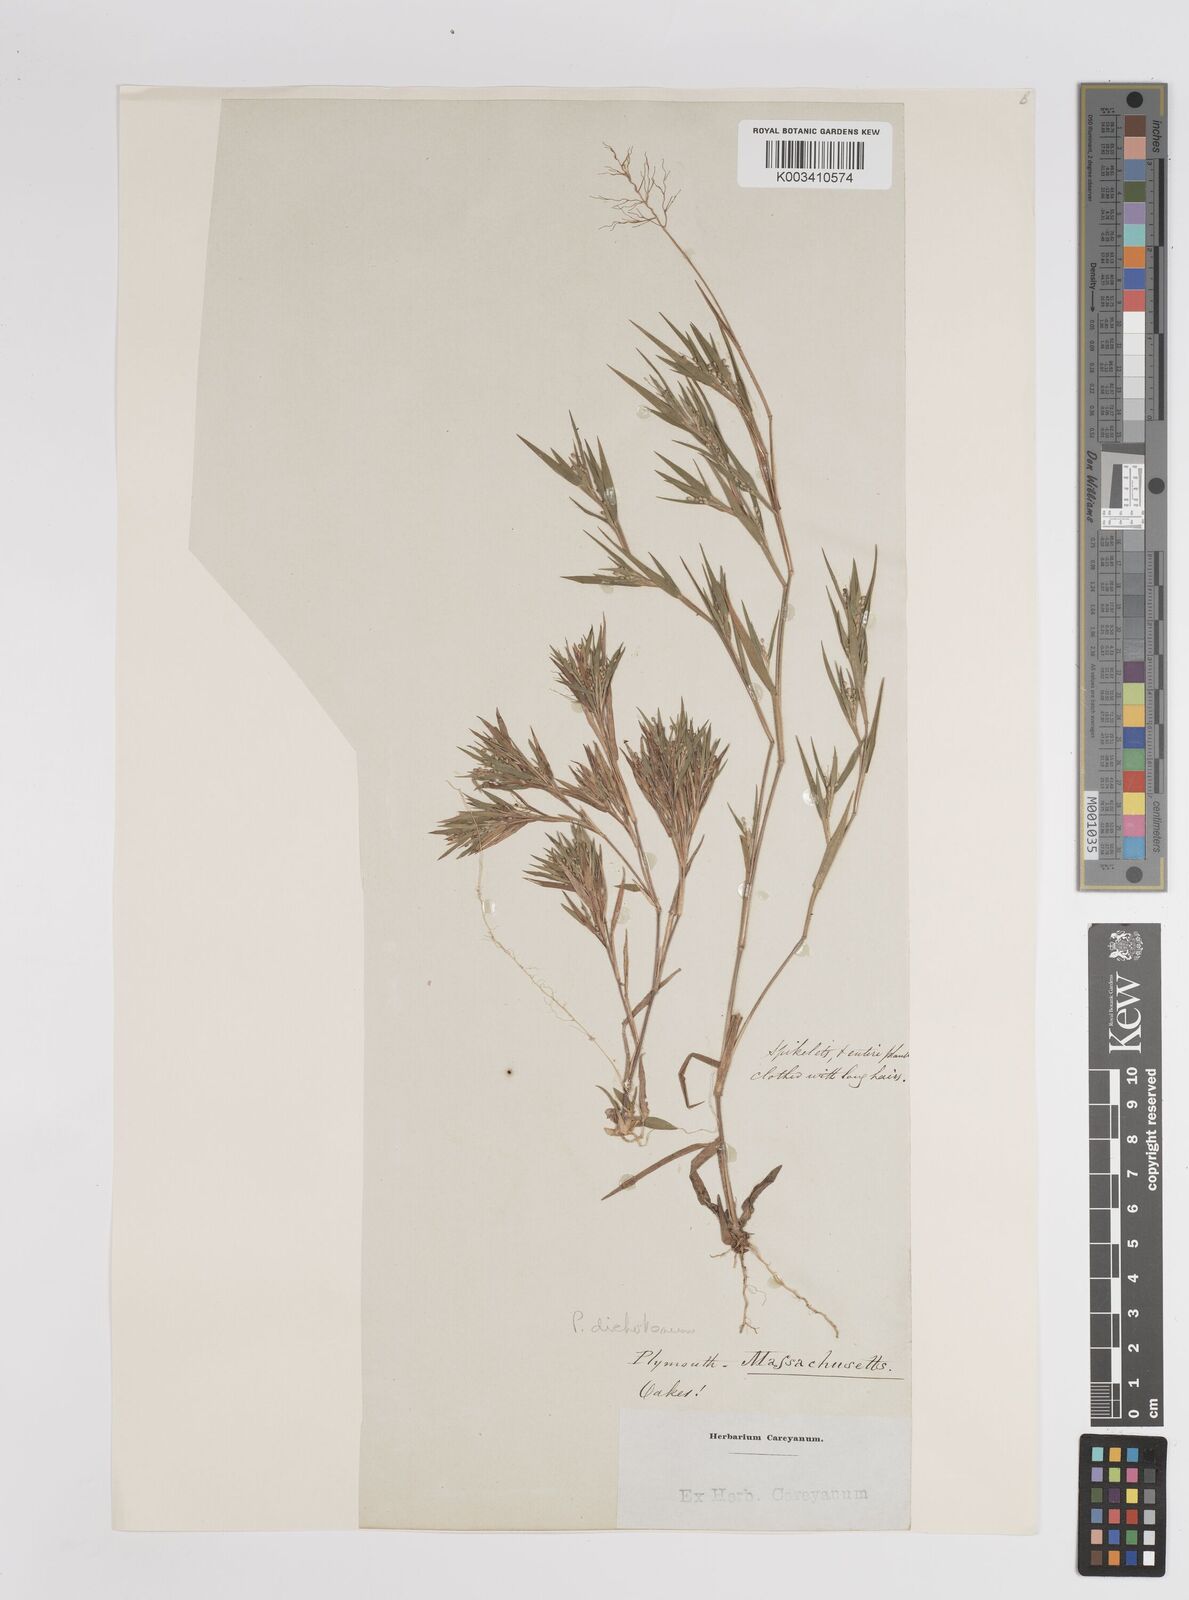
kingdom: Plantae
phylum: Tracheophyta
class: Liliopsida
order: Poales
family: Poaceae
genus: Dichanthelium
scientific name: Dichanthelium dichotomum
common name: Cypress panicgrass
